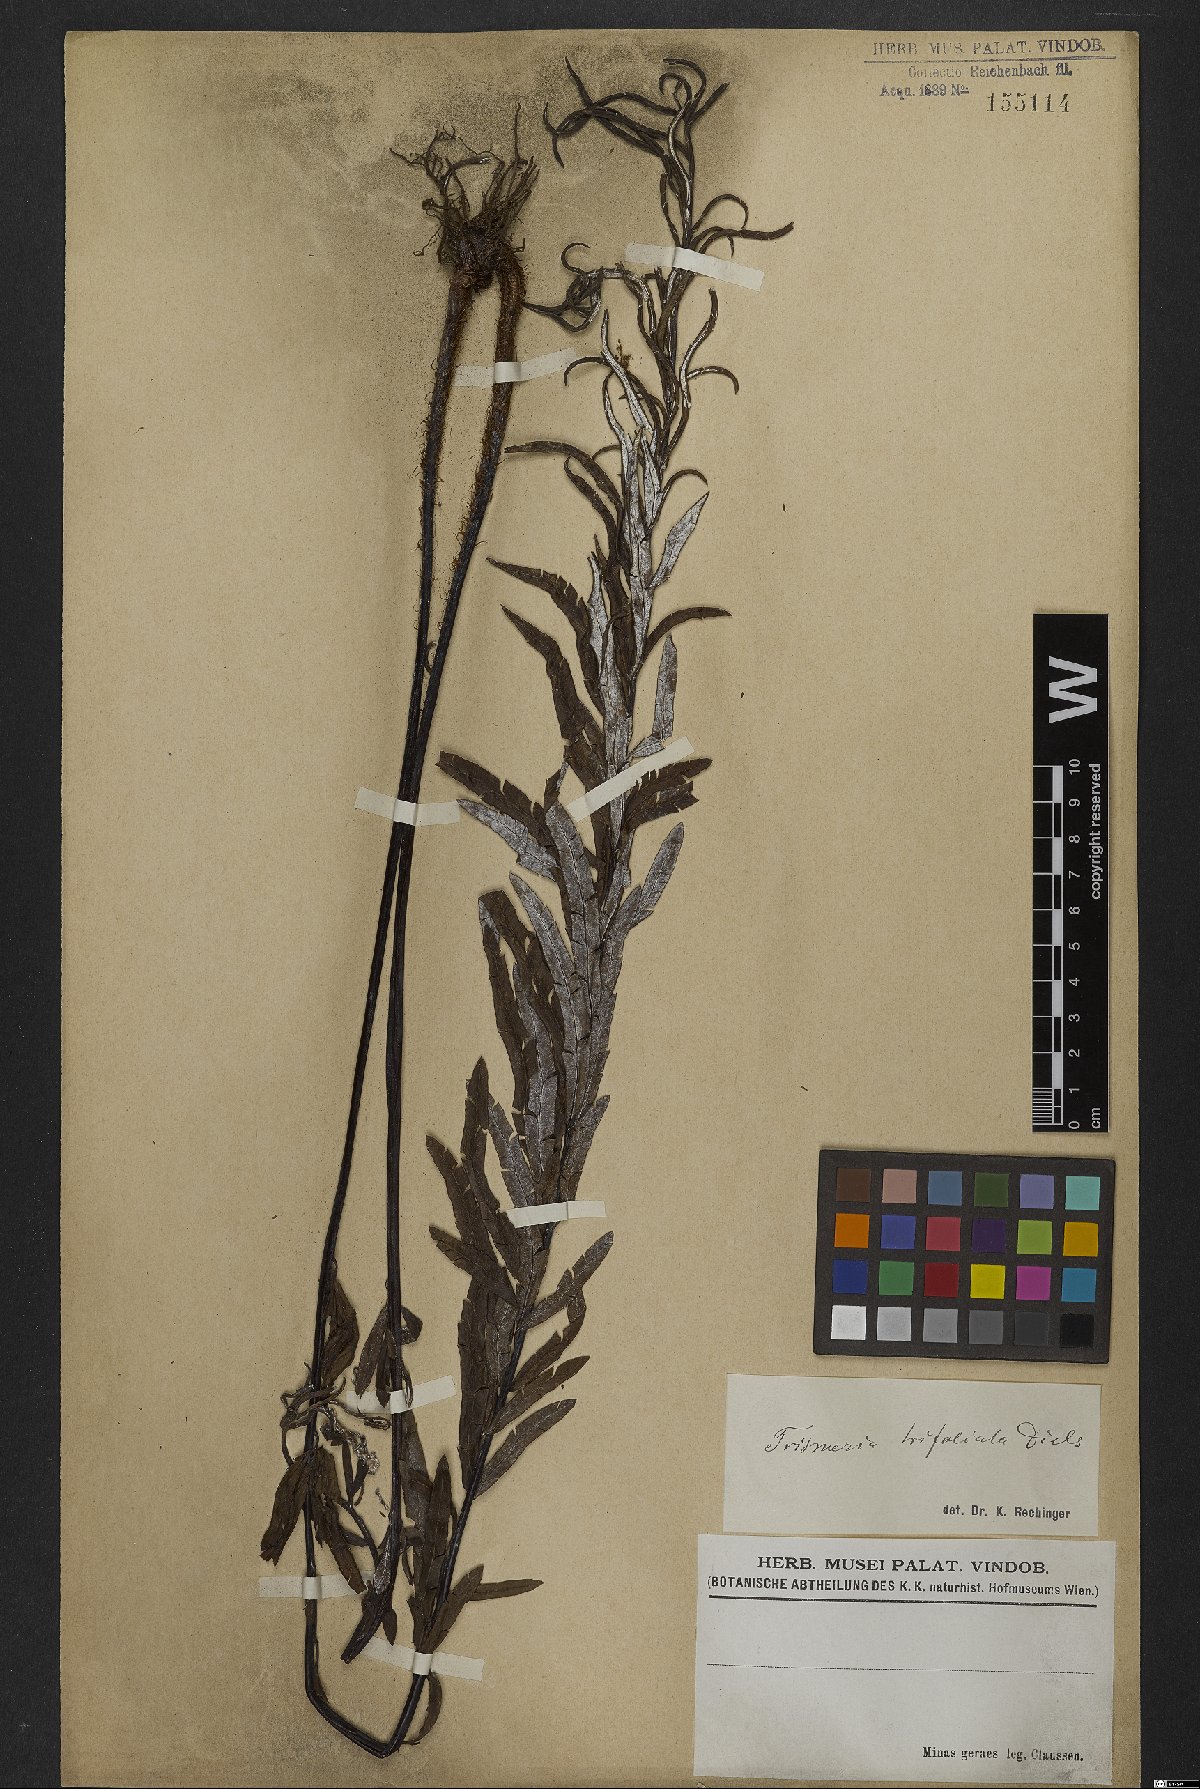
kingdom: Plantae
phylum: Tracheophyta
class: Polypodiopsida
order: Polypodiales
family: Pteridaceae
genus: Pityrogramma
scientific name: Pityrogramma trifoliata
